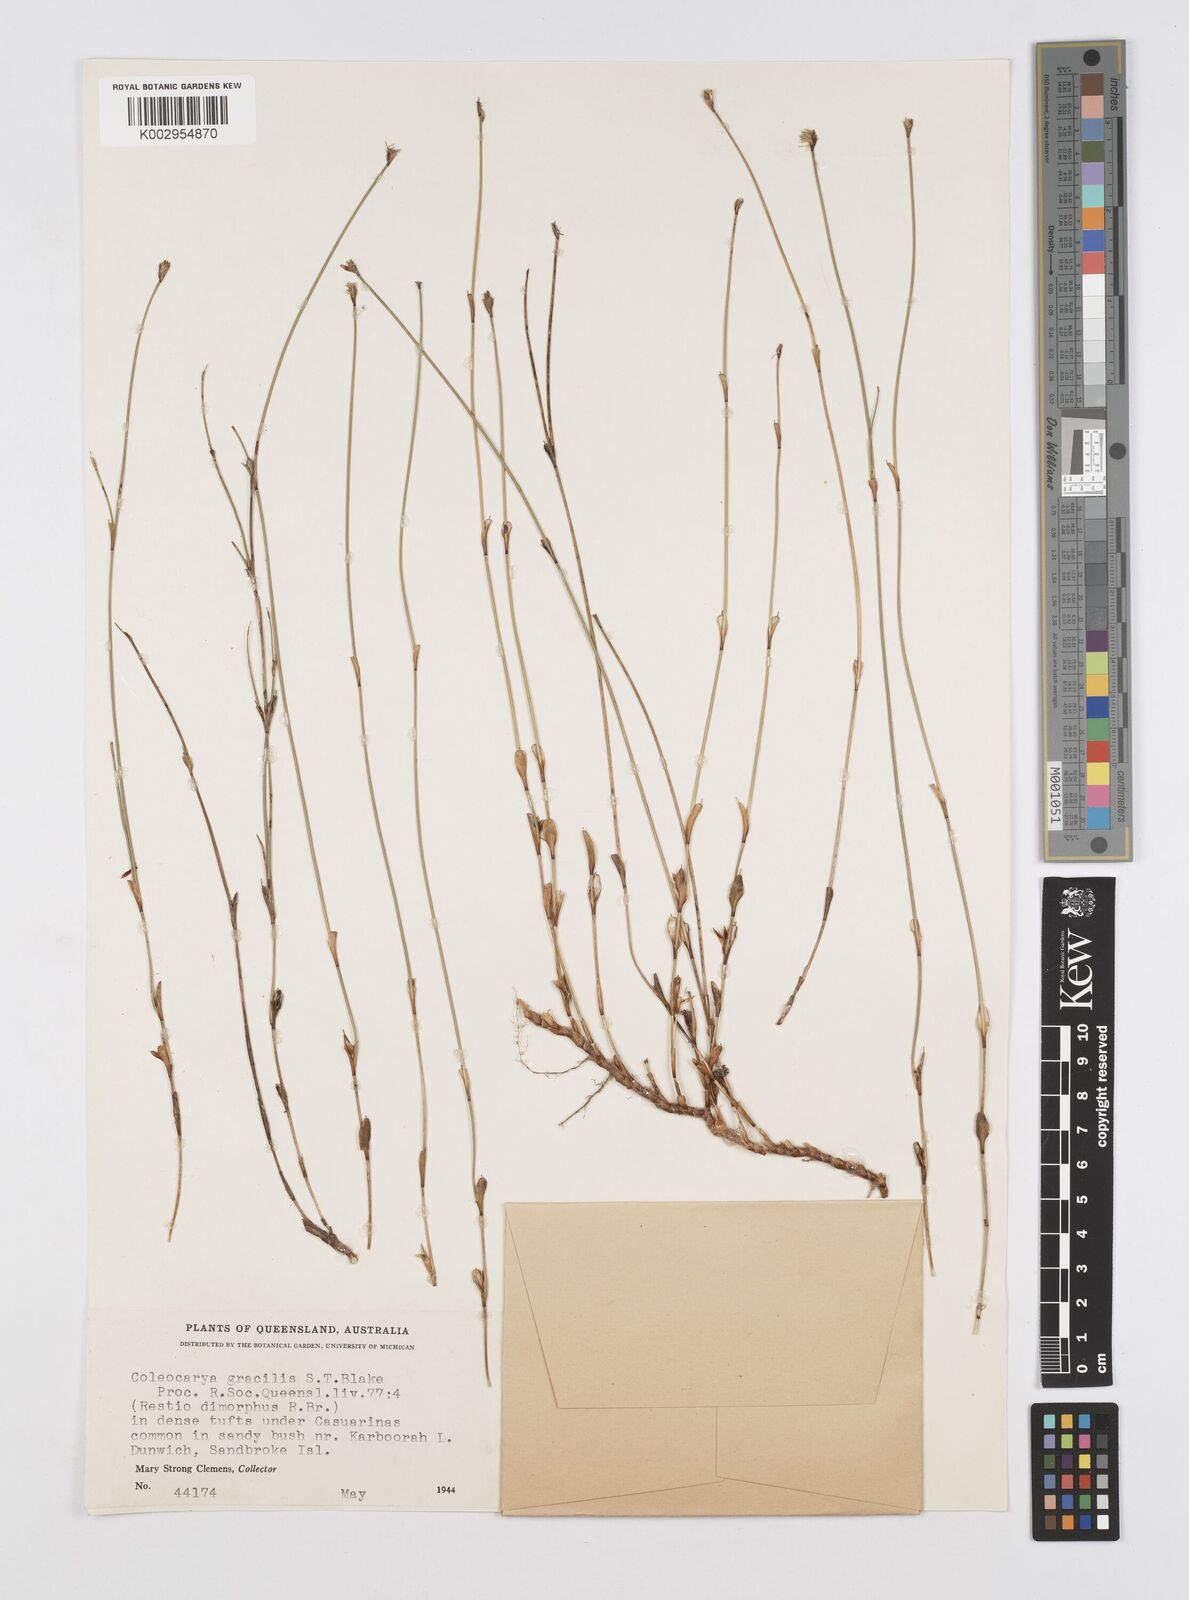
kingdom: Plantae
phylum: Tracheophyta
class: Liliopsida
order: Poales
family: Restionaceae
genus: Coleocarya
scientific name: Coleocarya gracilis
